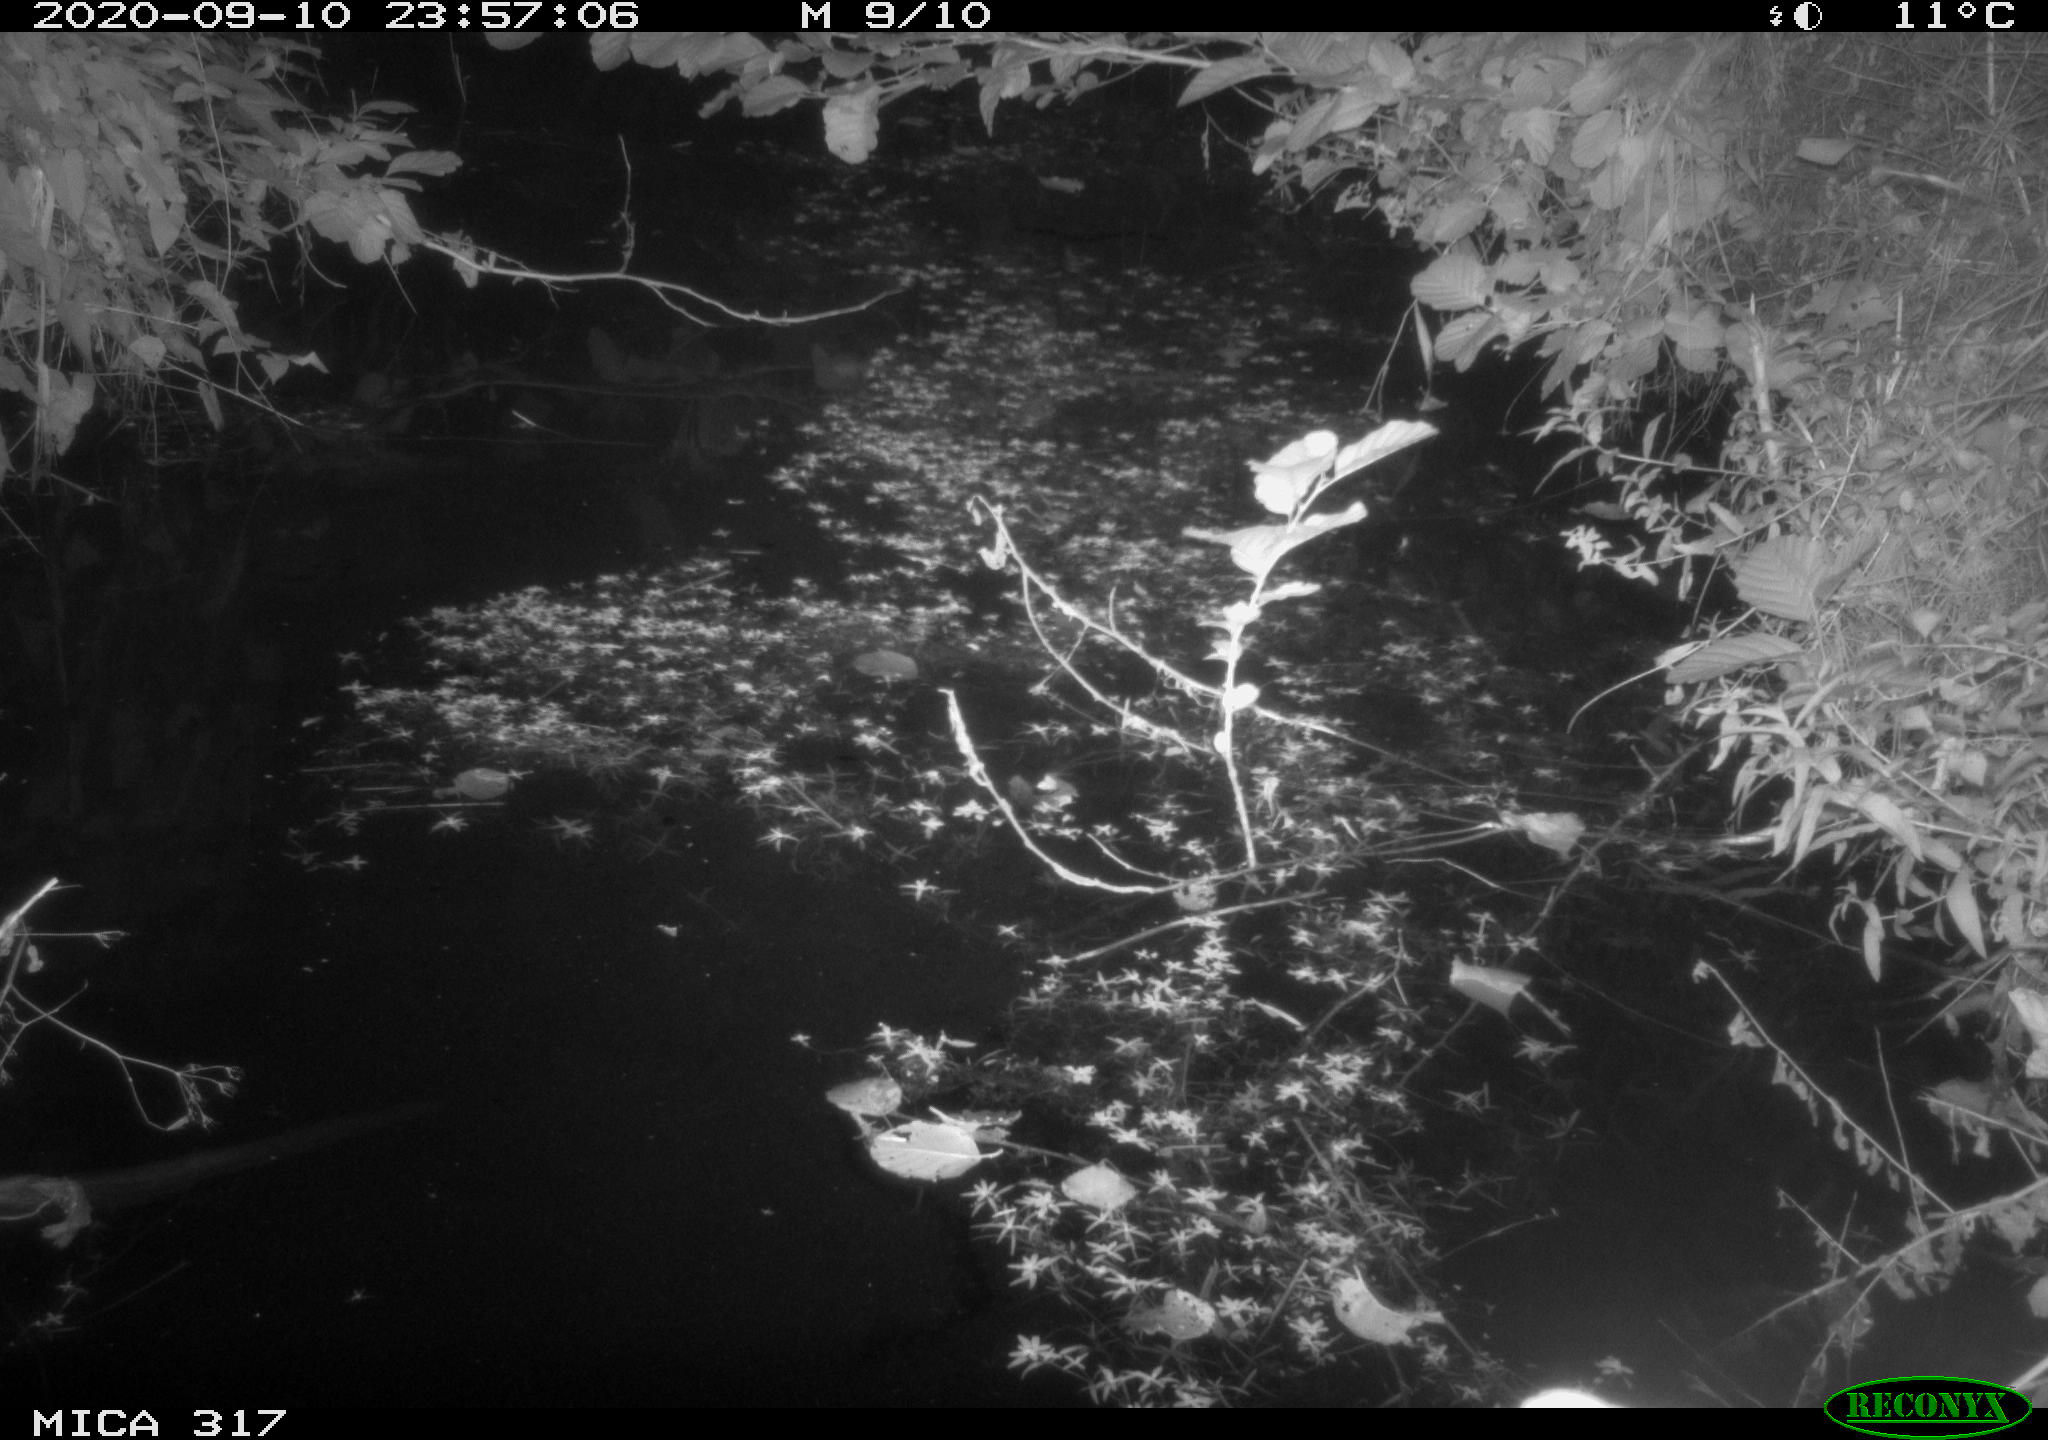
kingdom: Animalia
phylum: Chordata
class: Aves
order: Anseriformes
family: Anatidae
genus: Anas
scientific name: Anas platyrhynchos
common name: Mallard
